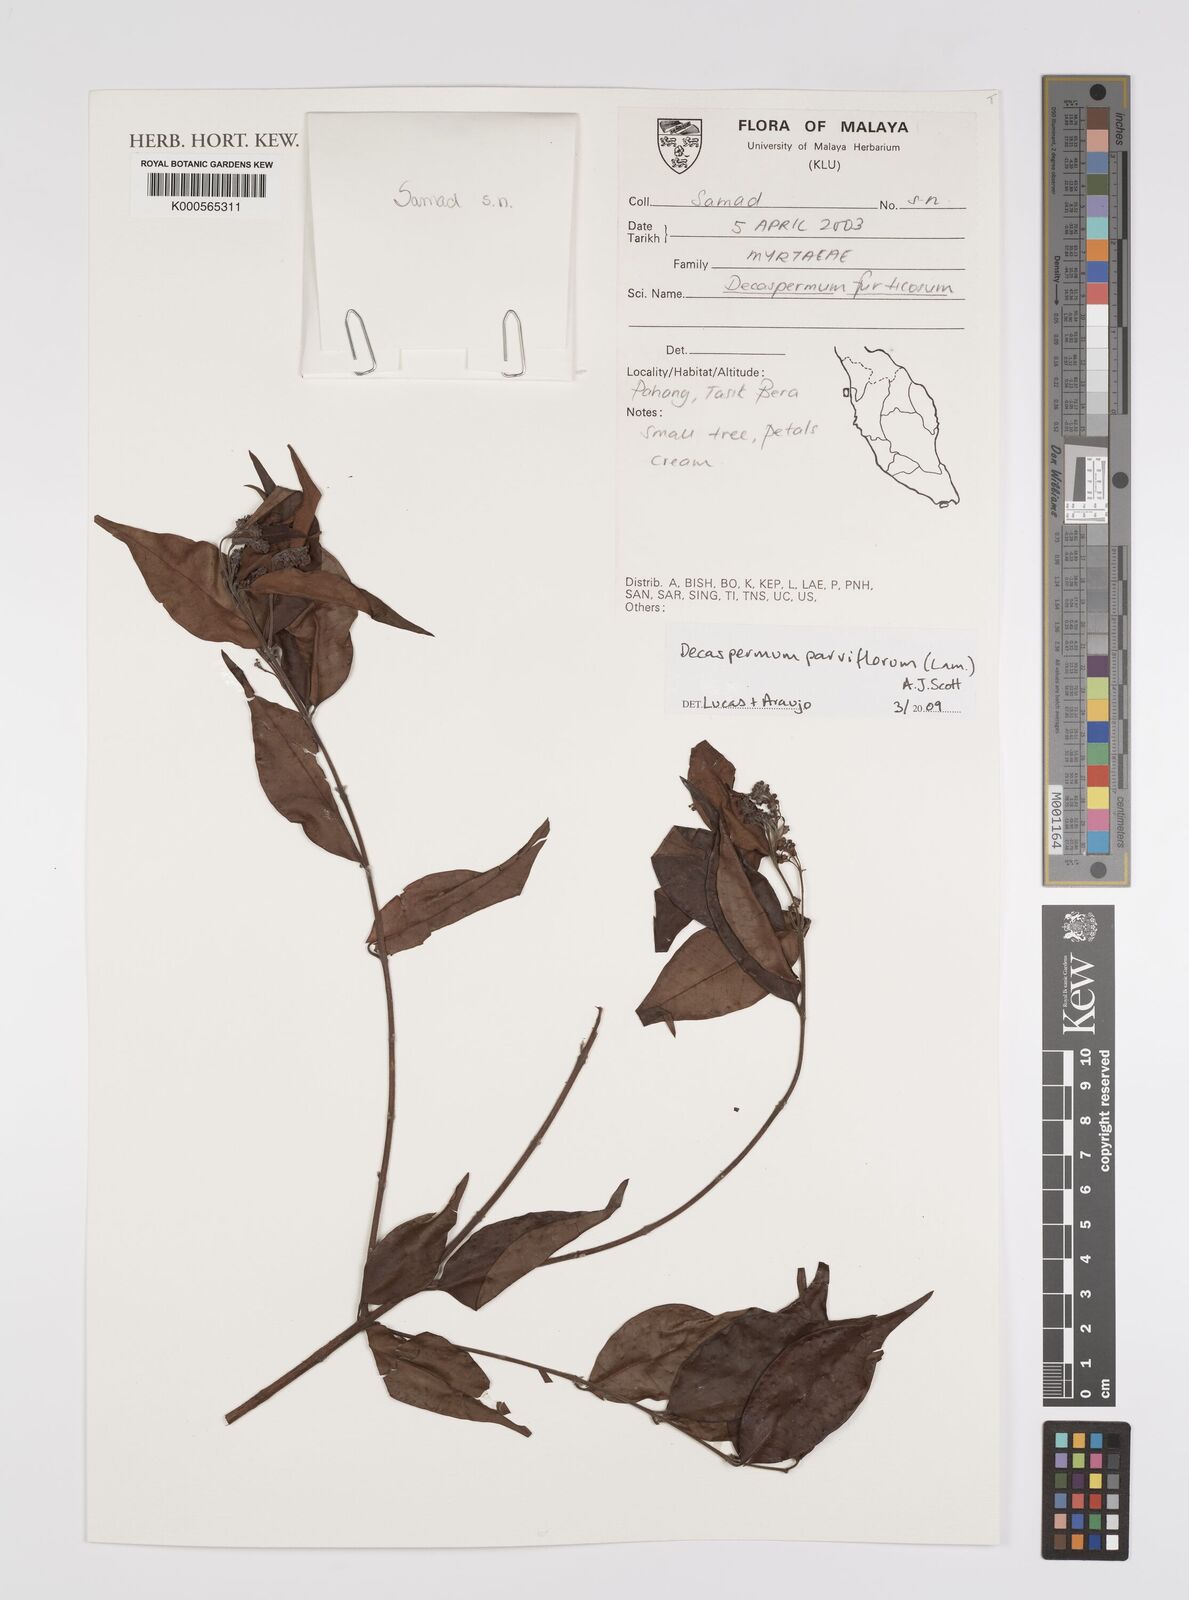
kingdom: Plantae
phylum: Tracheophyta
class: Magnoliopsida
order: Myrtales
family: Myrtaceae
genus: Decaspermum
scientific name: Decaspermum parviflorum
